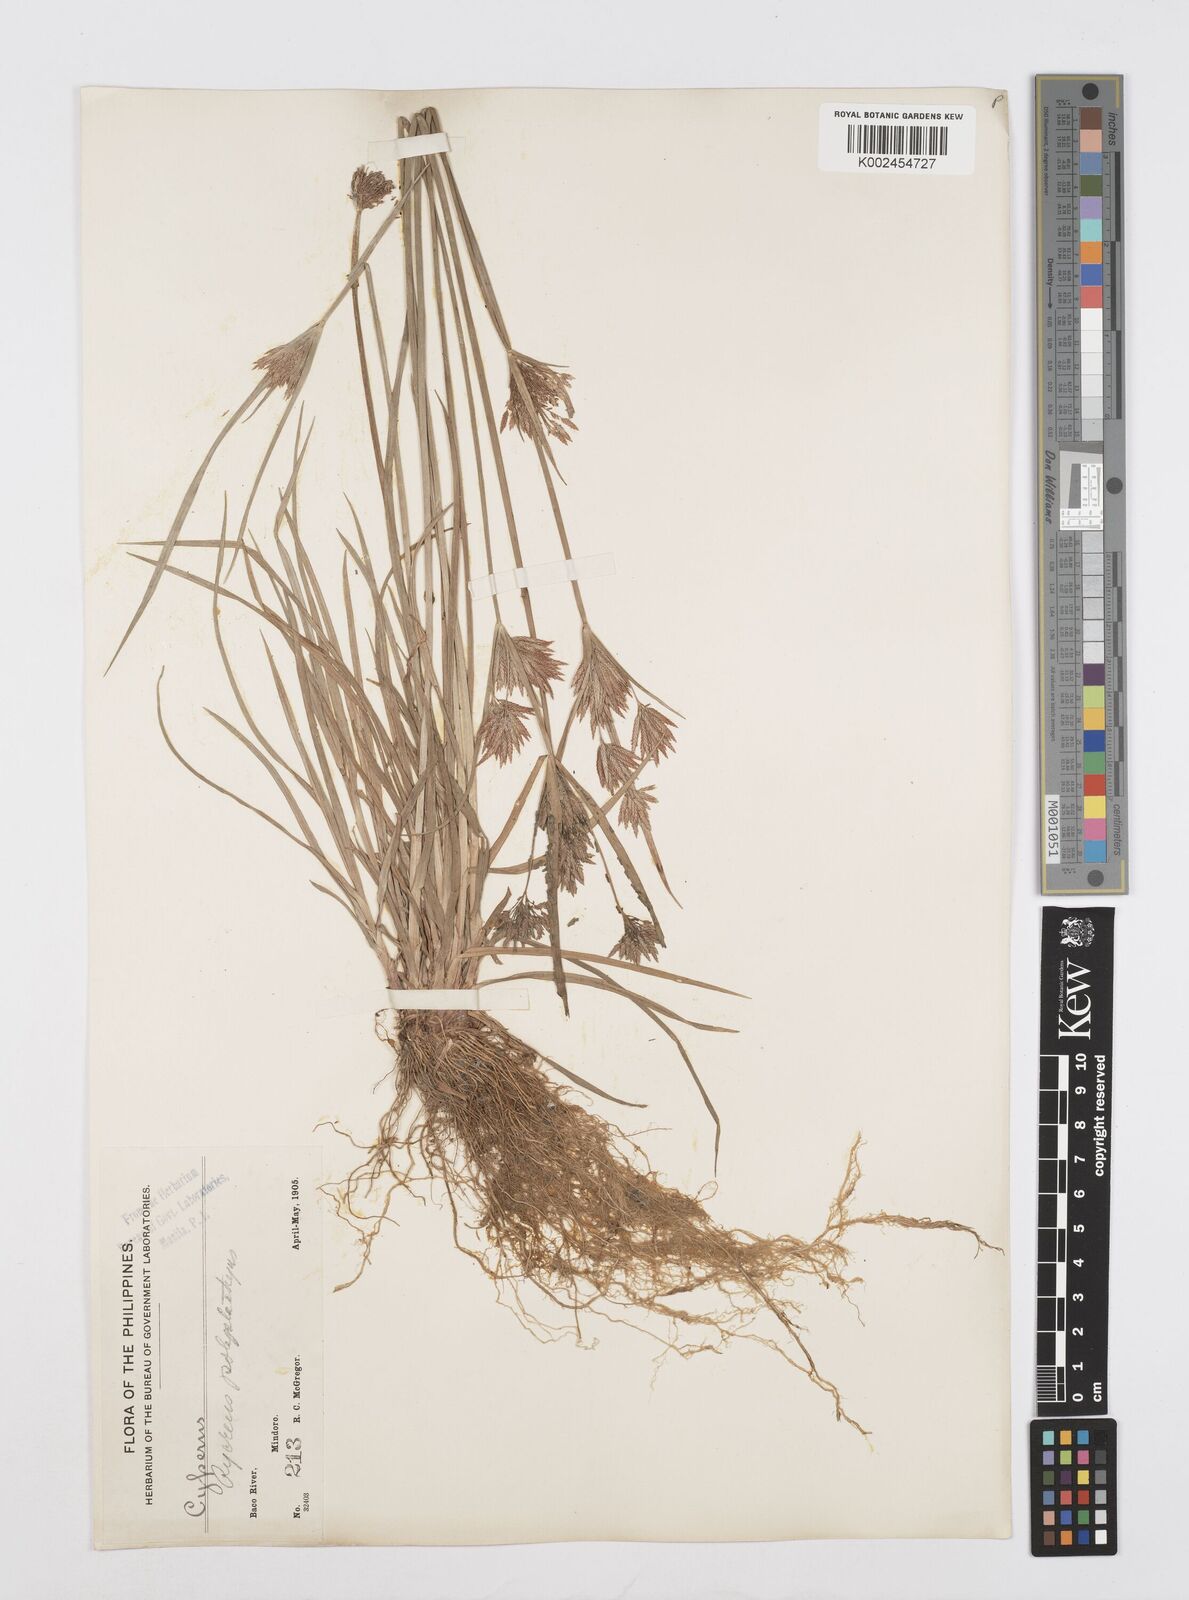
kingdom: Plantae
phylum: Tracheophyta
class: Liliopsida
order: Poales
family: Cyperaceae
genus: Cyperus
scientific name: Cyperus polystachyos
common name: Bunchy flat sedge
